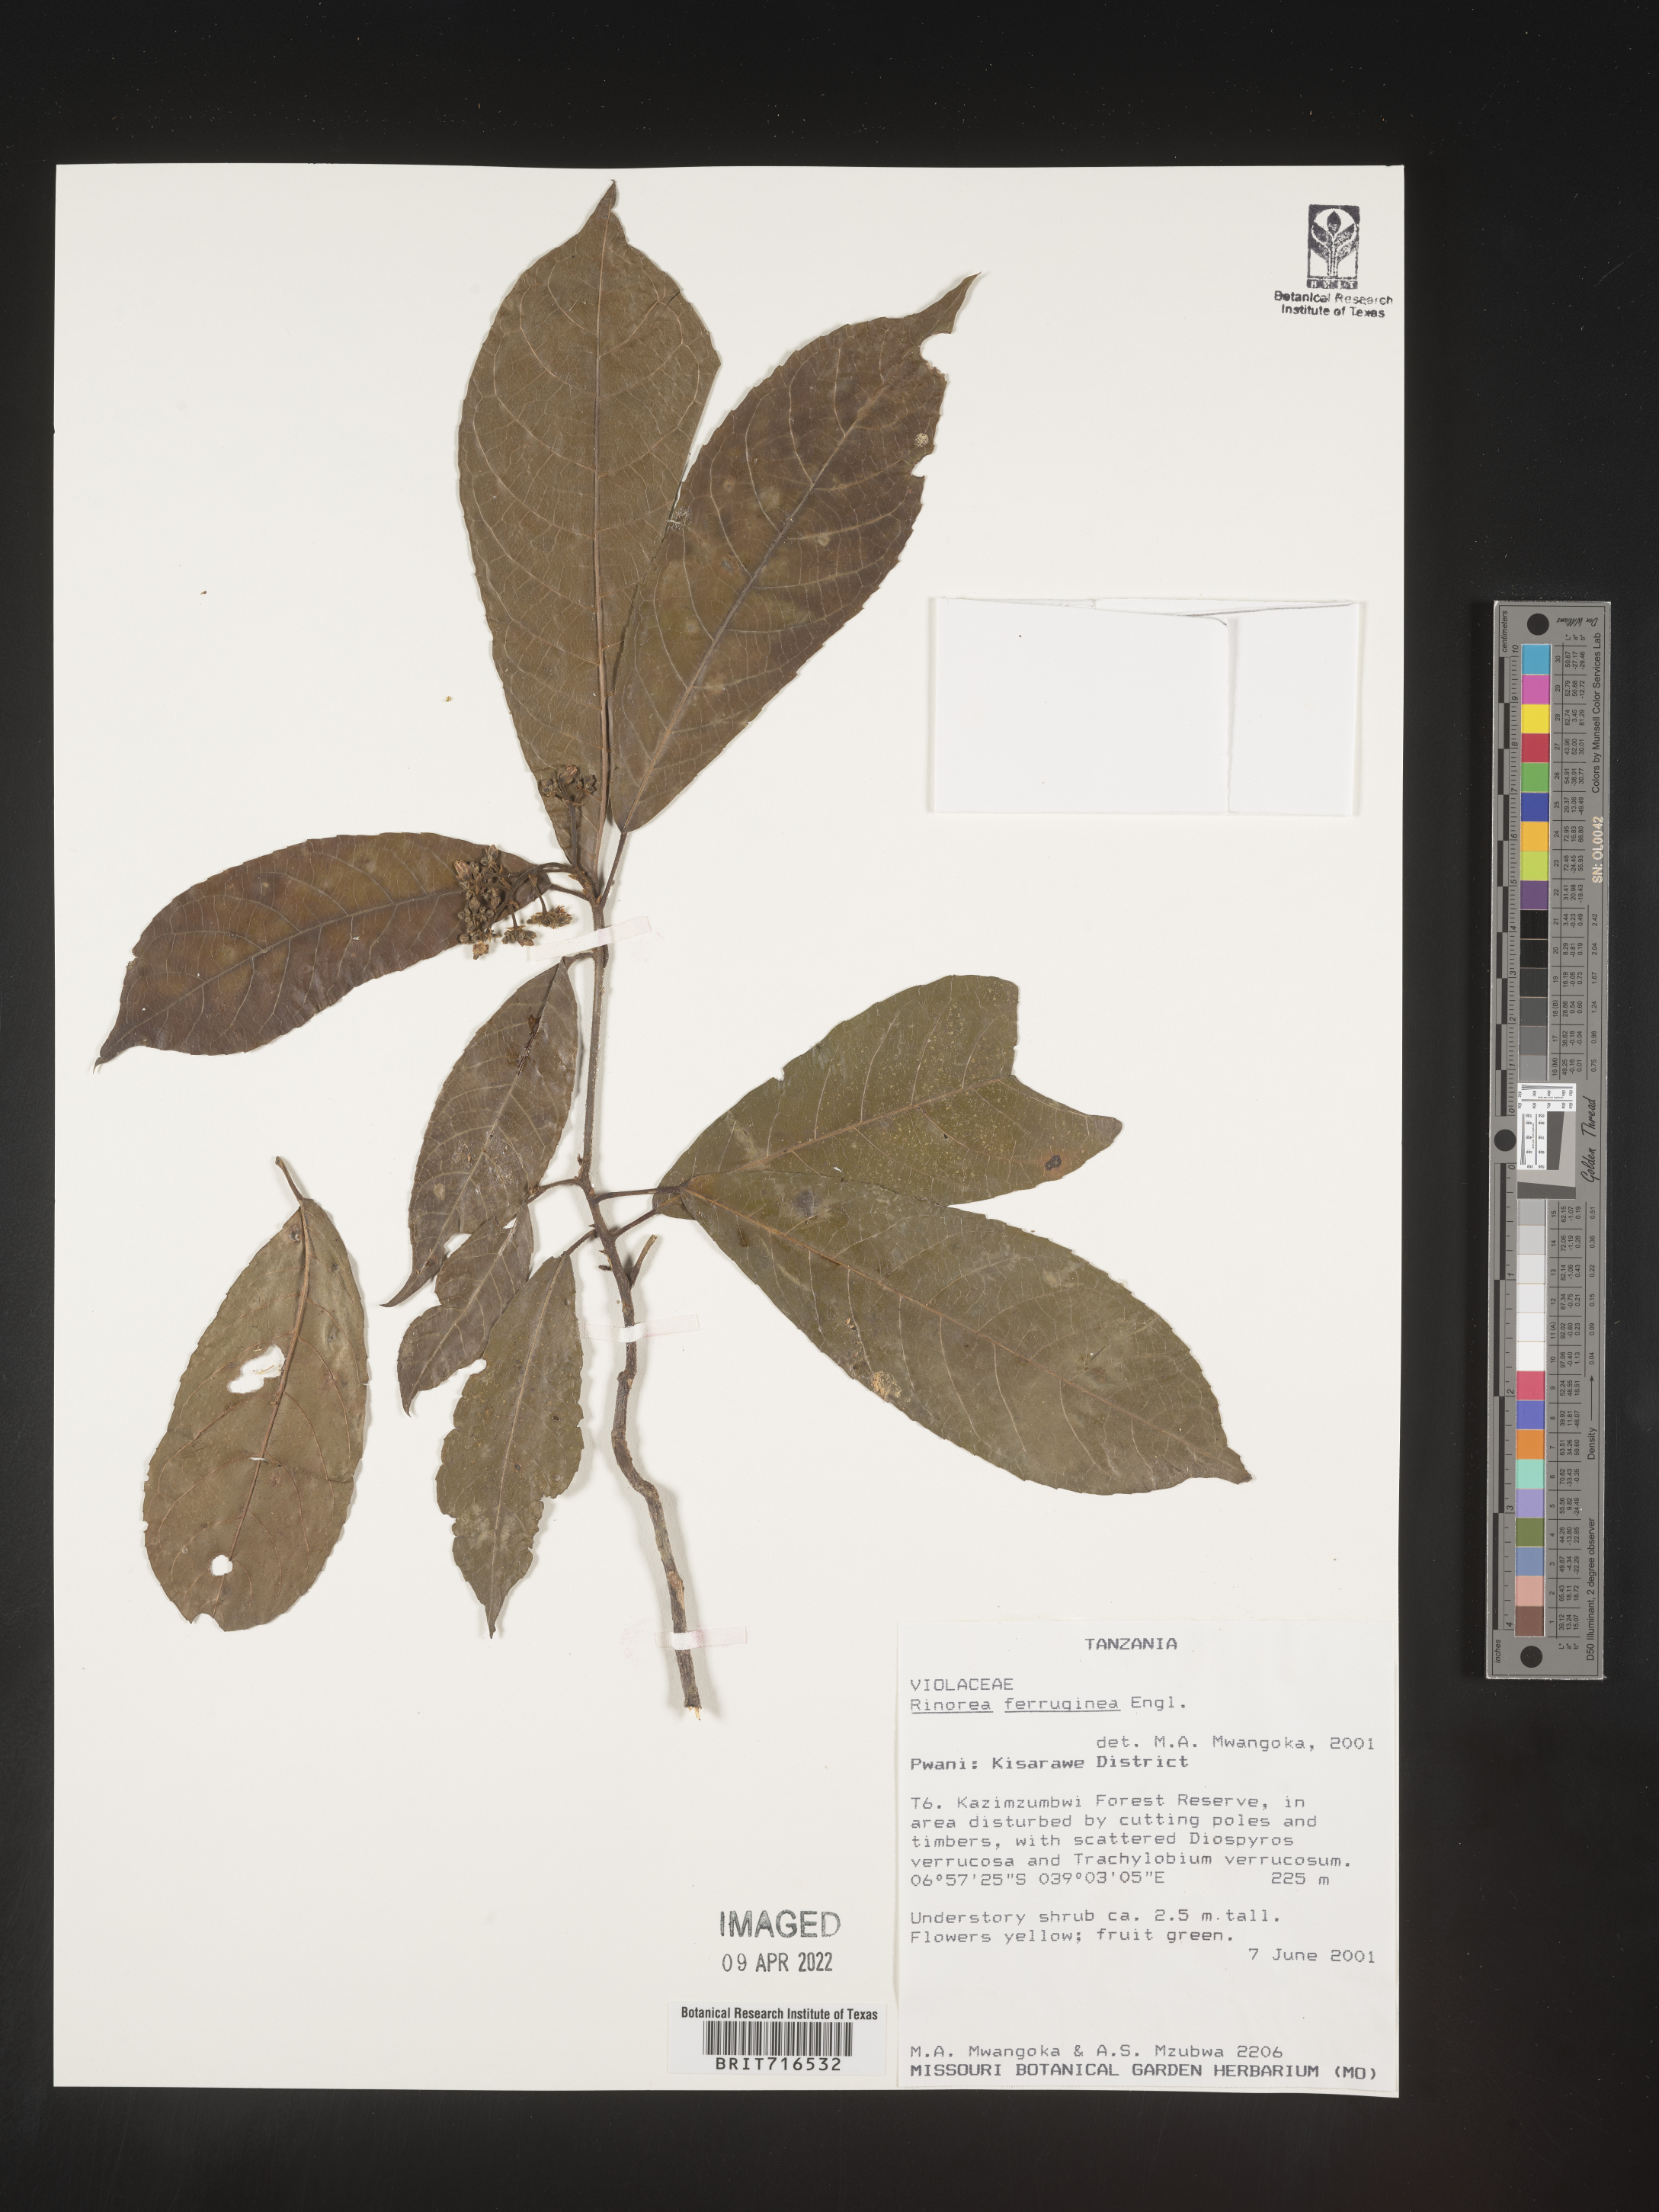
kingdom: Plantae
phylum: Tracheophyta
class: Magnoliopsida
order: Malpighiales
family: Violaceae
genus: Rinorea
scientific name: Rinorea
